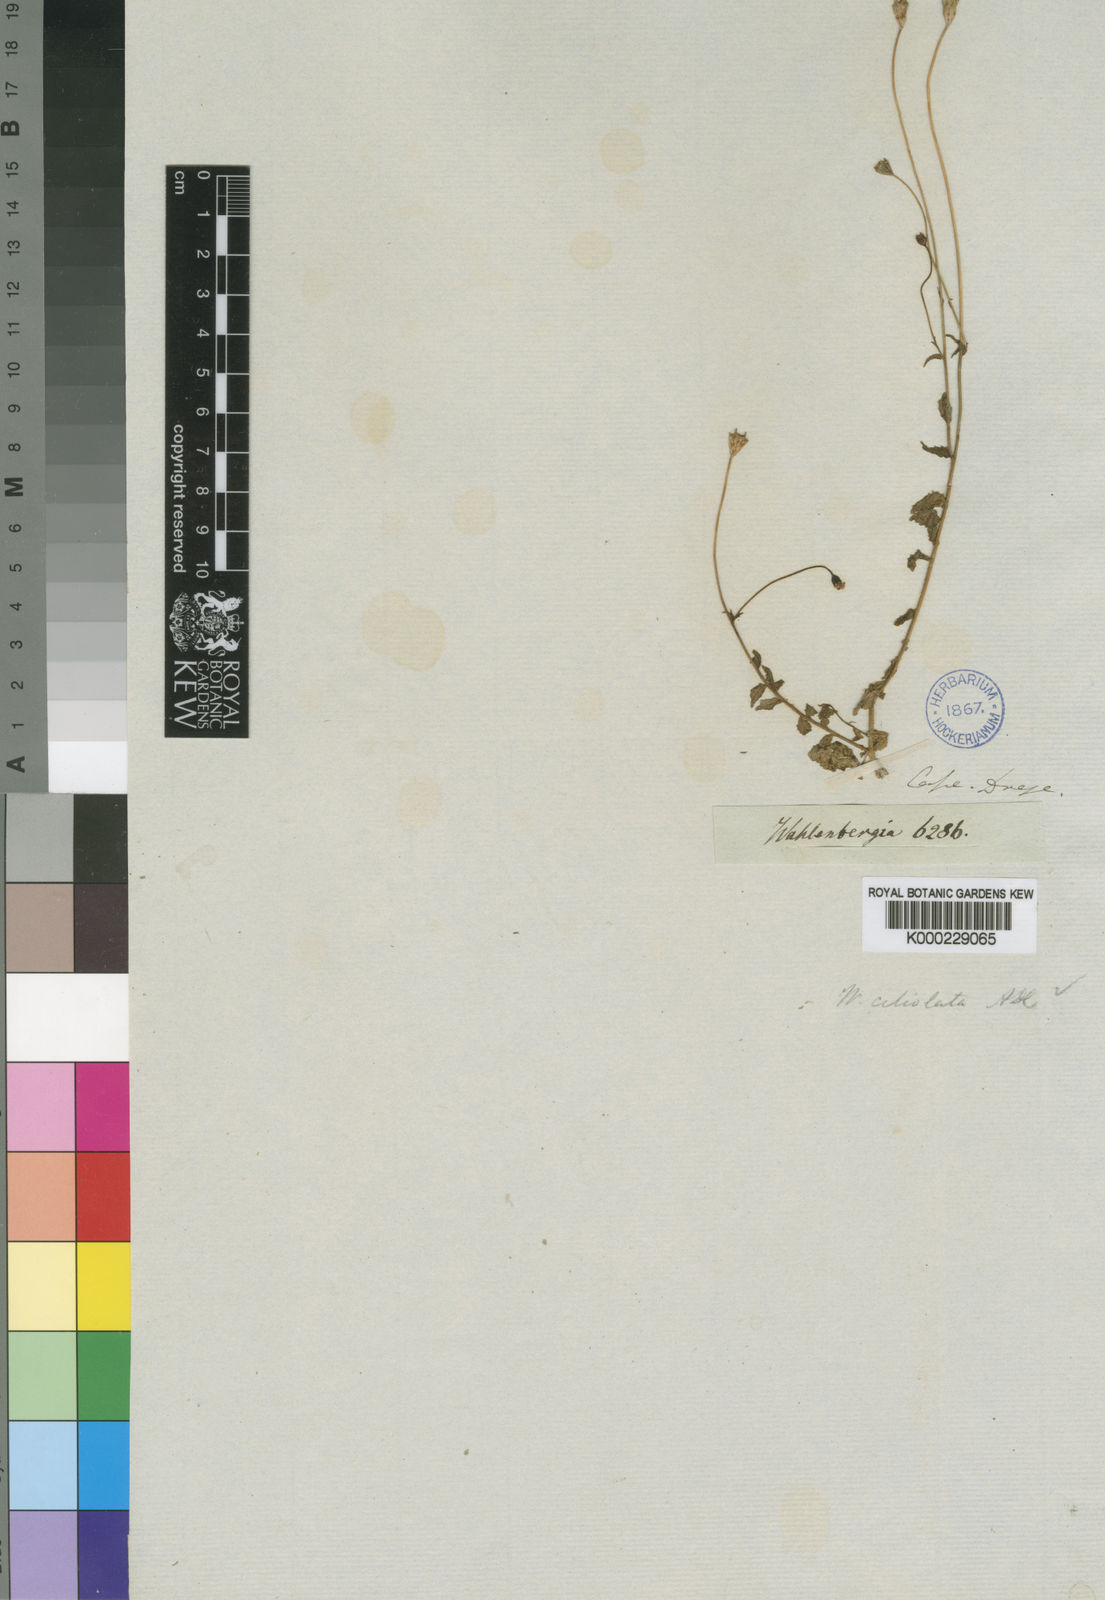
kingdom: Plantae
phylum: Tracheophyta
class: Magnoliopsida
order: Asterales
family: Campanulaceae
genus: Wahlenbergia
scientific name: Wahlenbergia cernua
